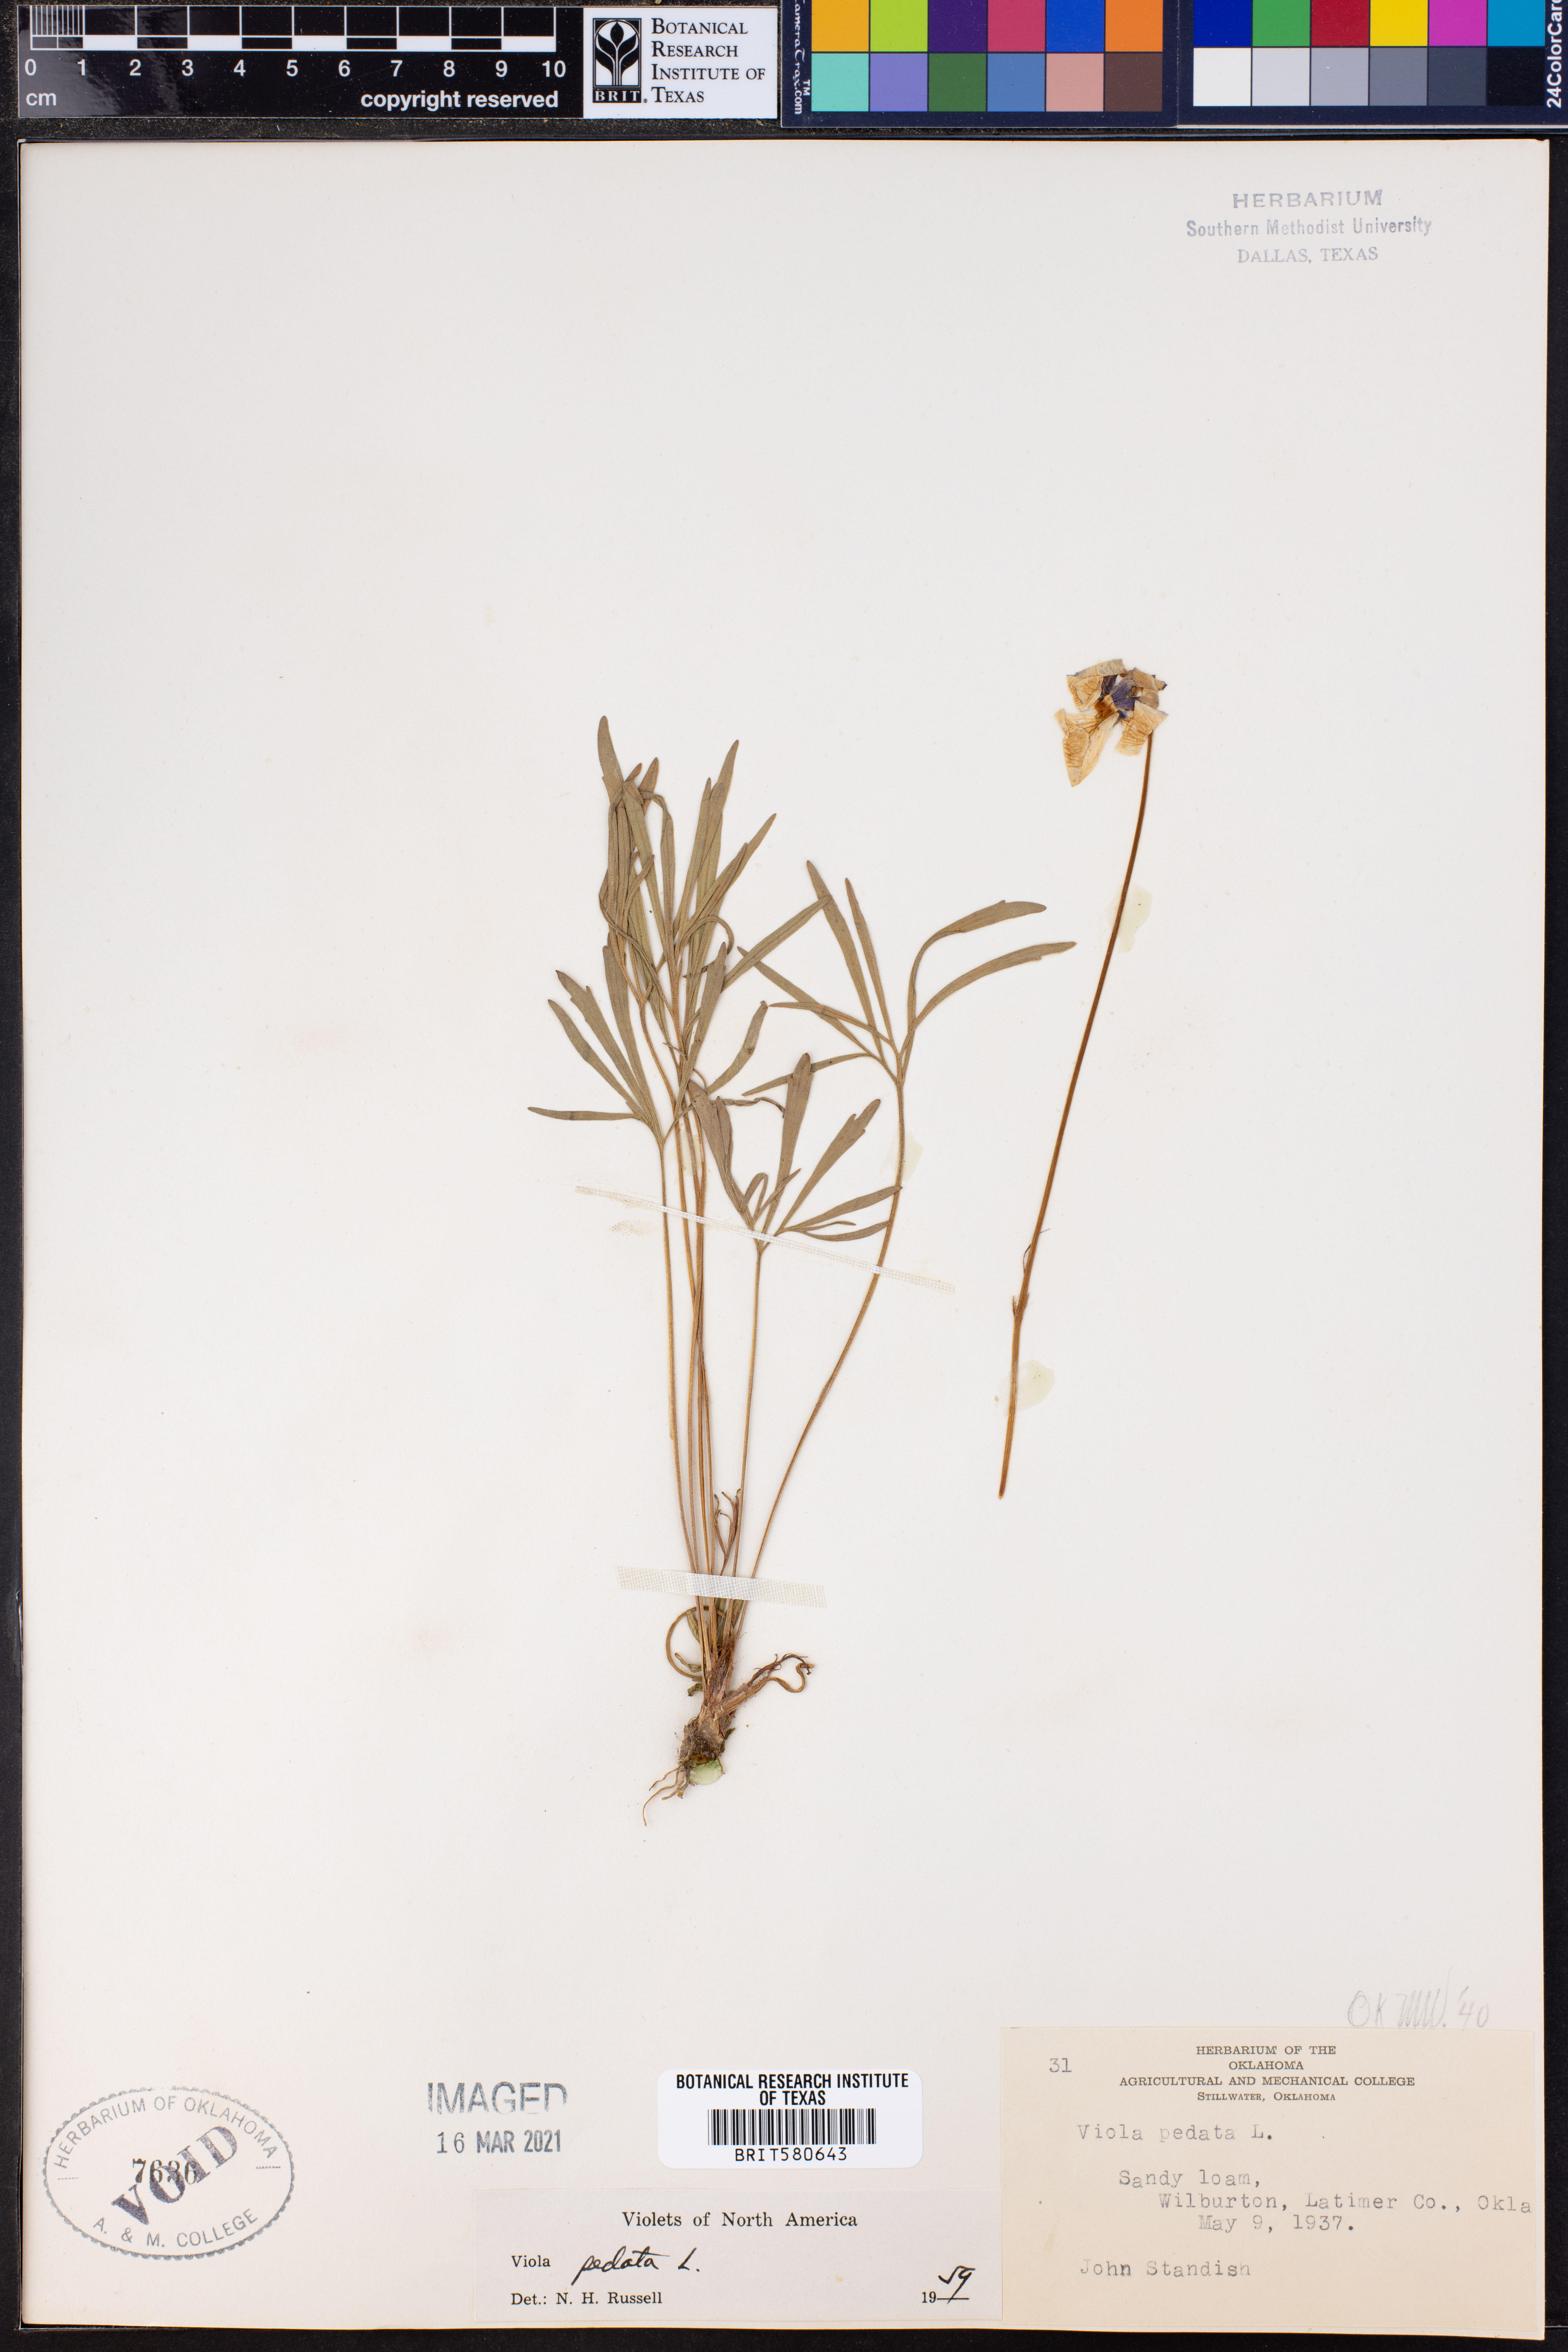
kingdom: Plantae
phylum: Tracheophyta
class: Magnoliopsida
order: Malpighiales
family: Violaceae
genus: Viola
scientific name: Viola pedata
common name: Pansy violet
